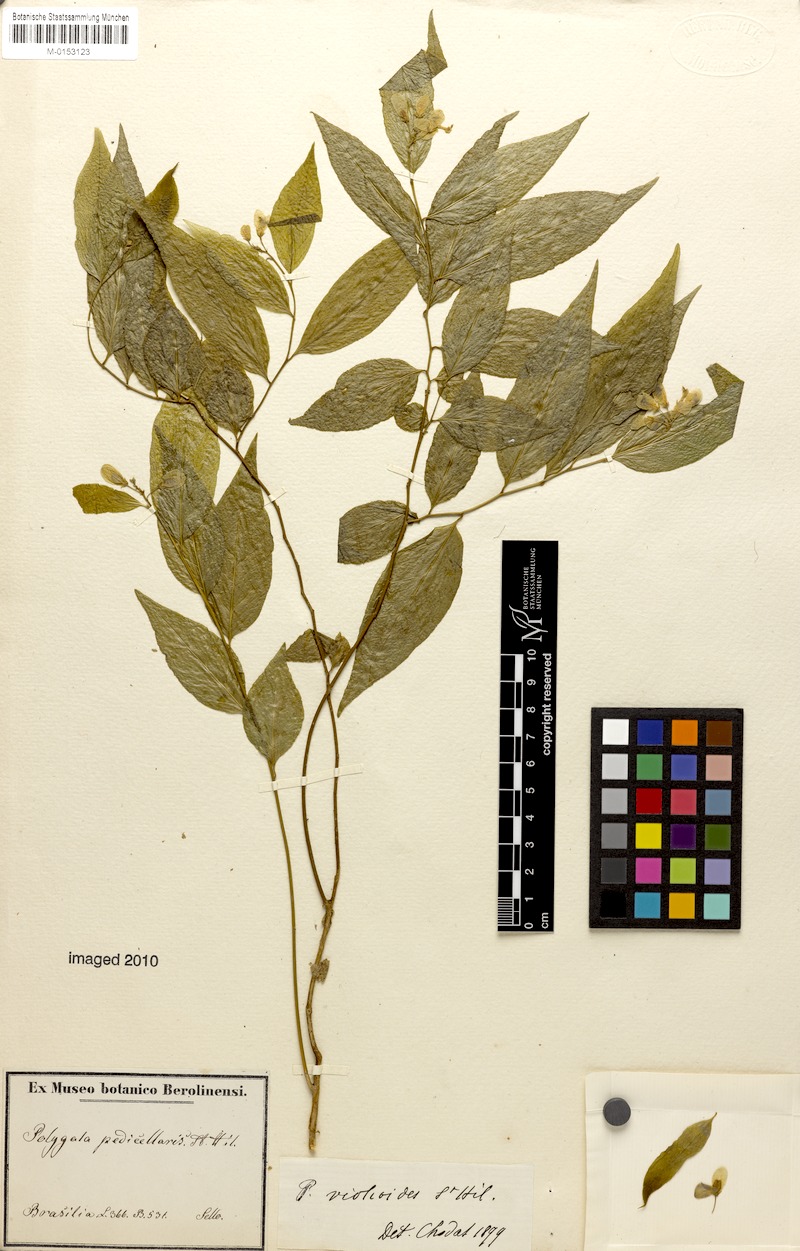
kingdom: Plantae
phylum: Tracheophyta
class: Magnoliopsida
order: Fabales
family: Polygalaceae
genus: Gymnospora
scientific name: Gymnospora blanchetii
